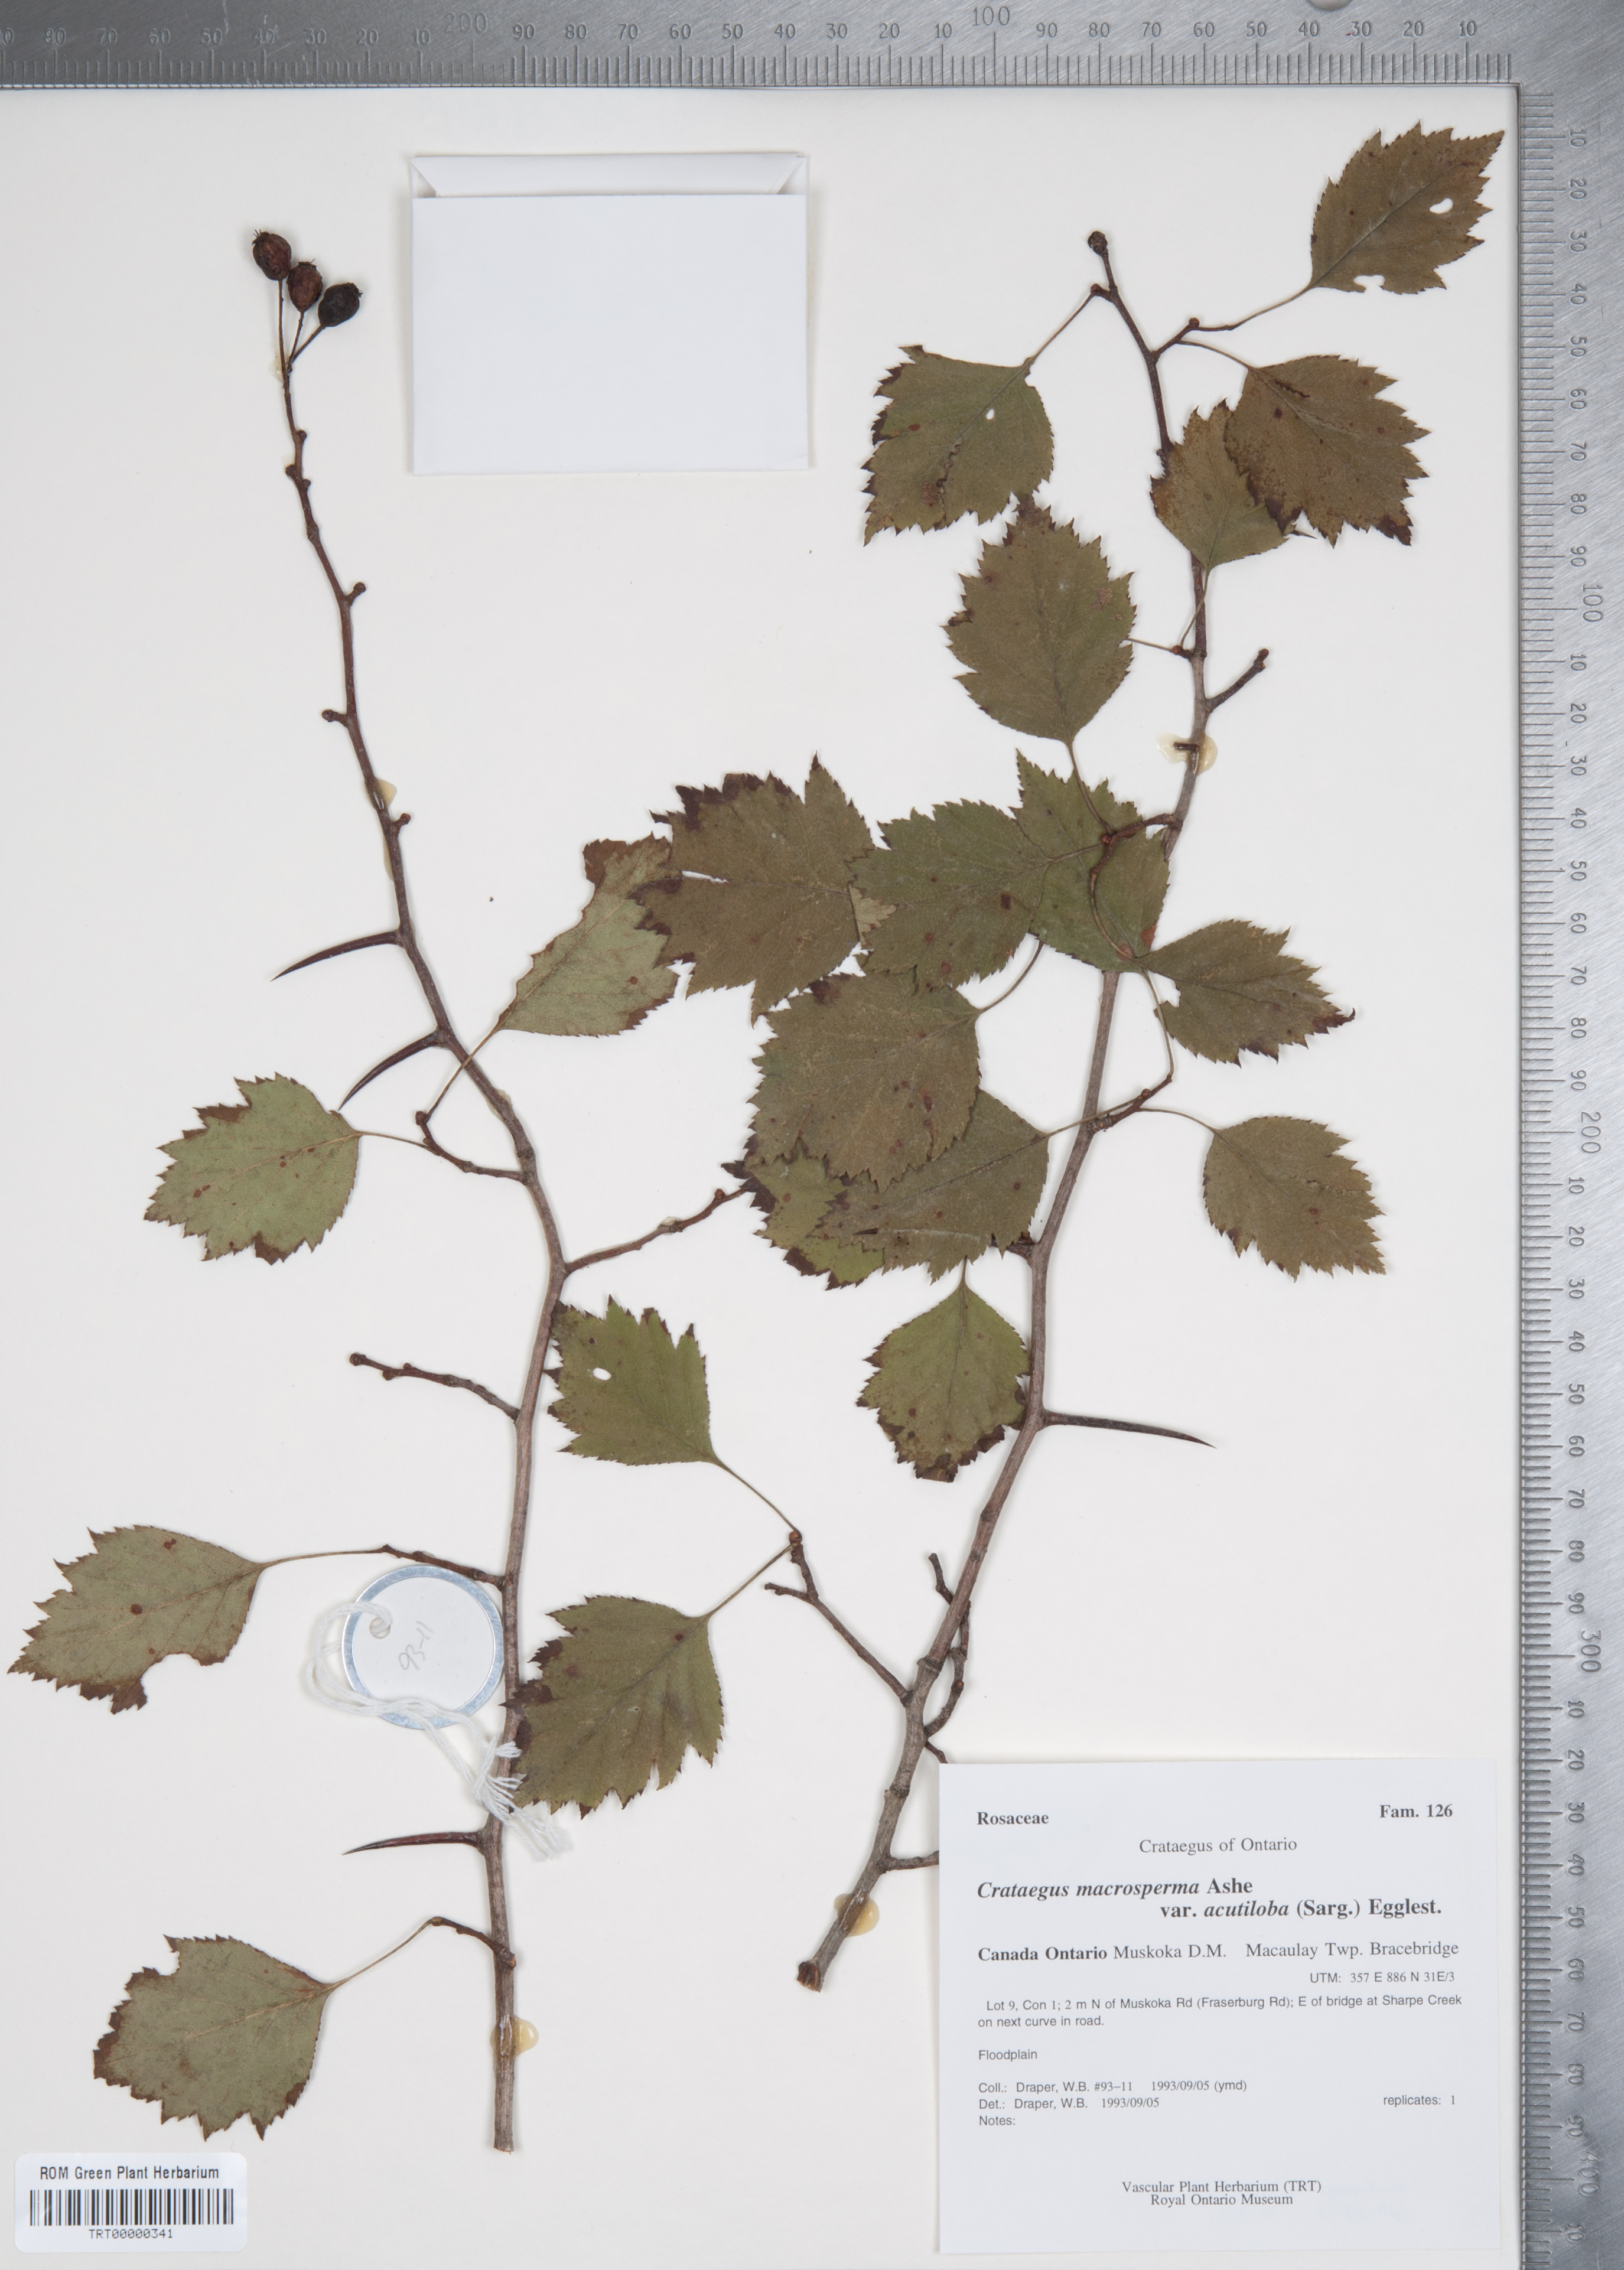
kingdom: Plantae
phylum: Tracheophyta
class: Magnoliopsida
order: Rosales
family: Rosaceae
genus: Crataegus
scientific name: Crataegus macrosperma
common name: Variable hawthorn
